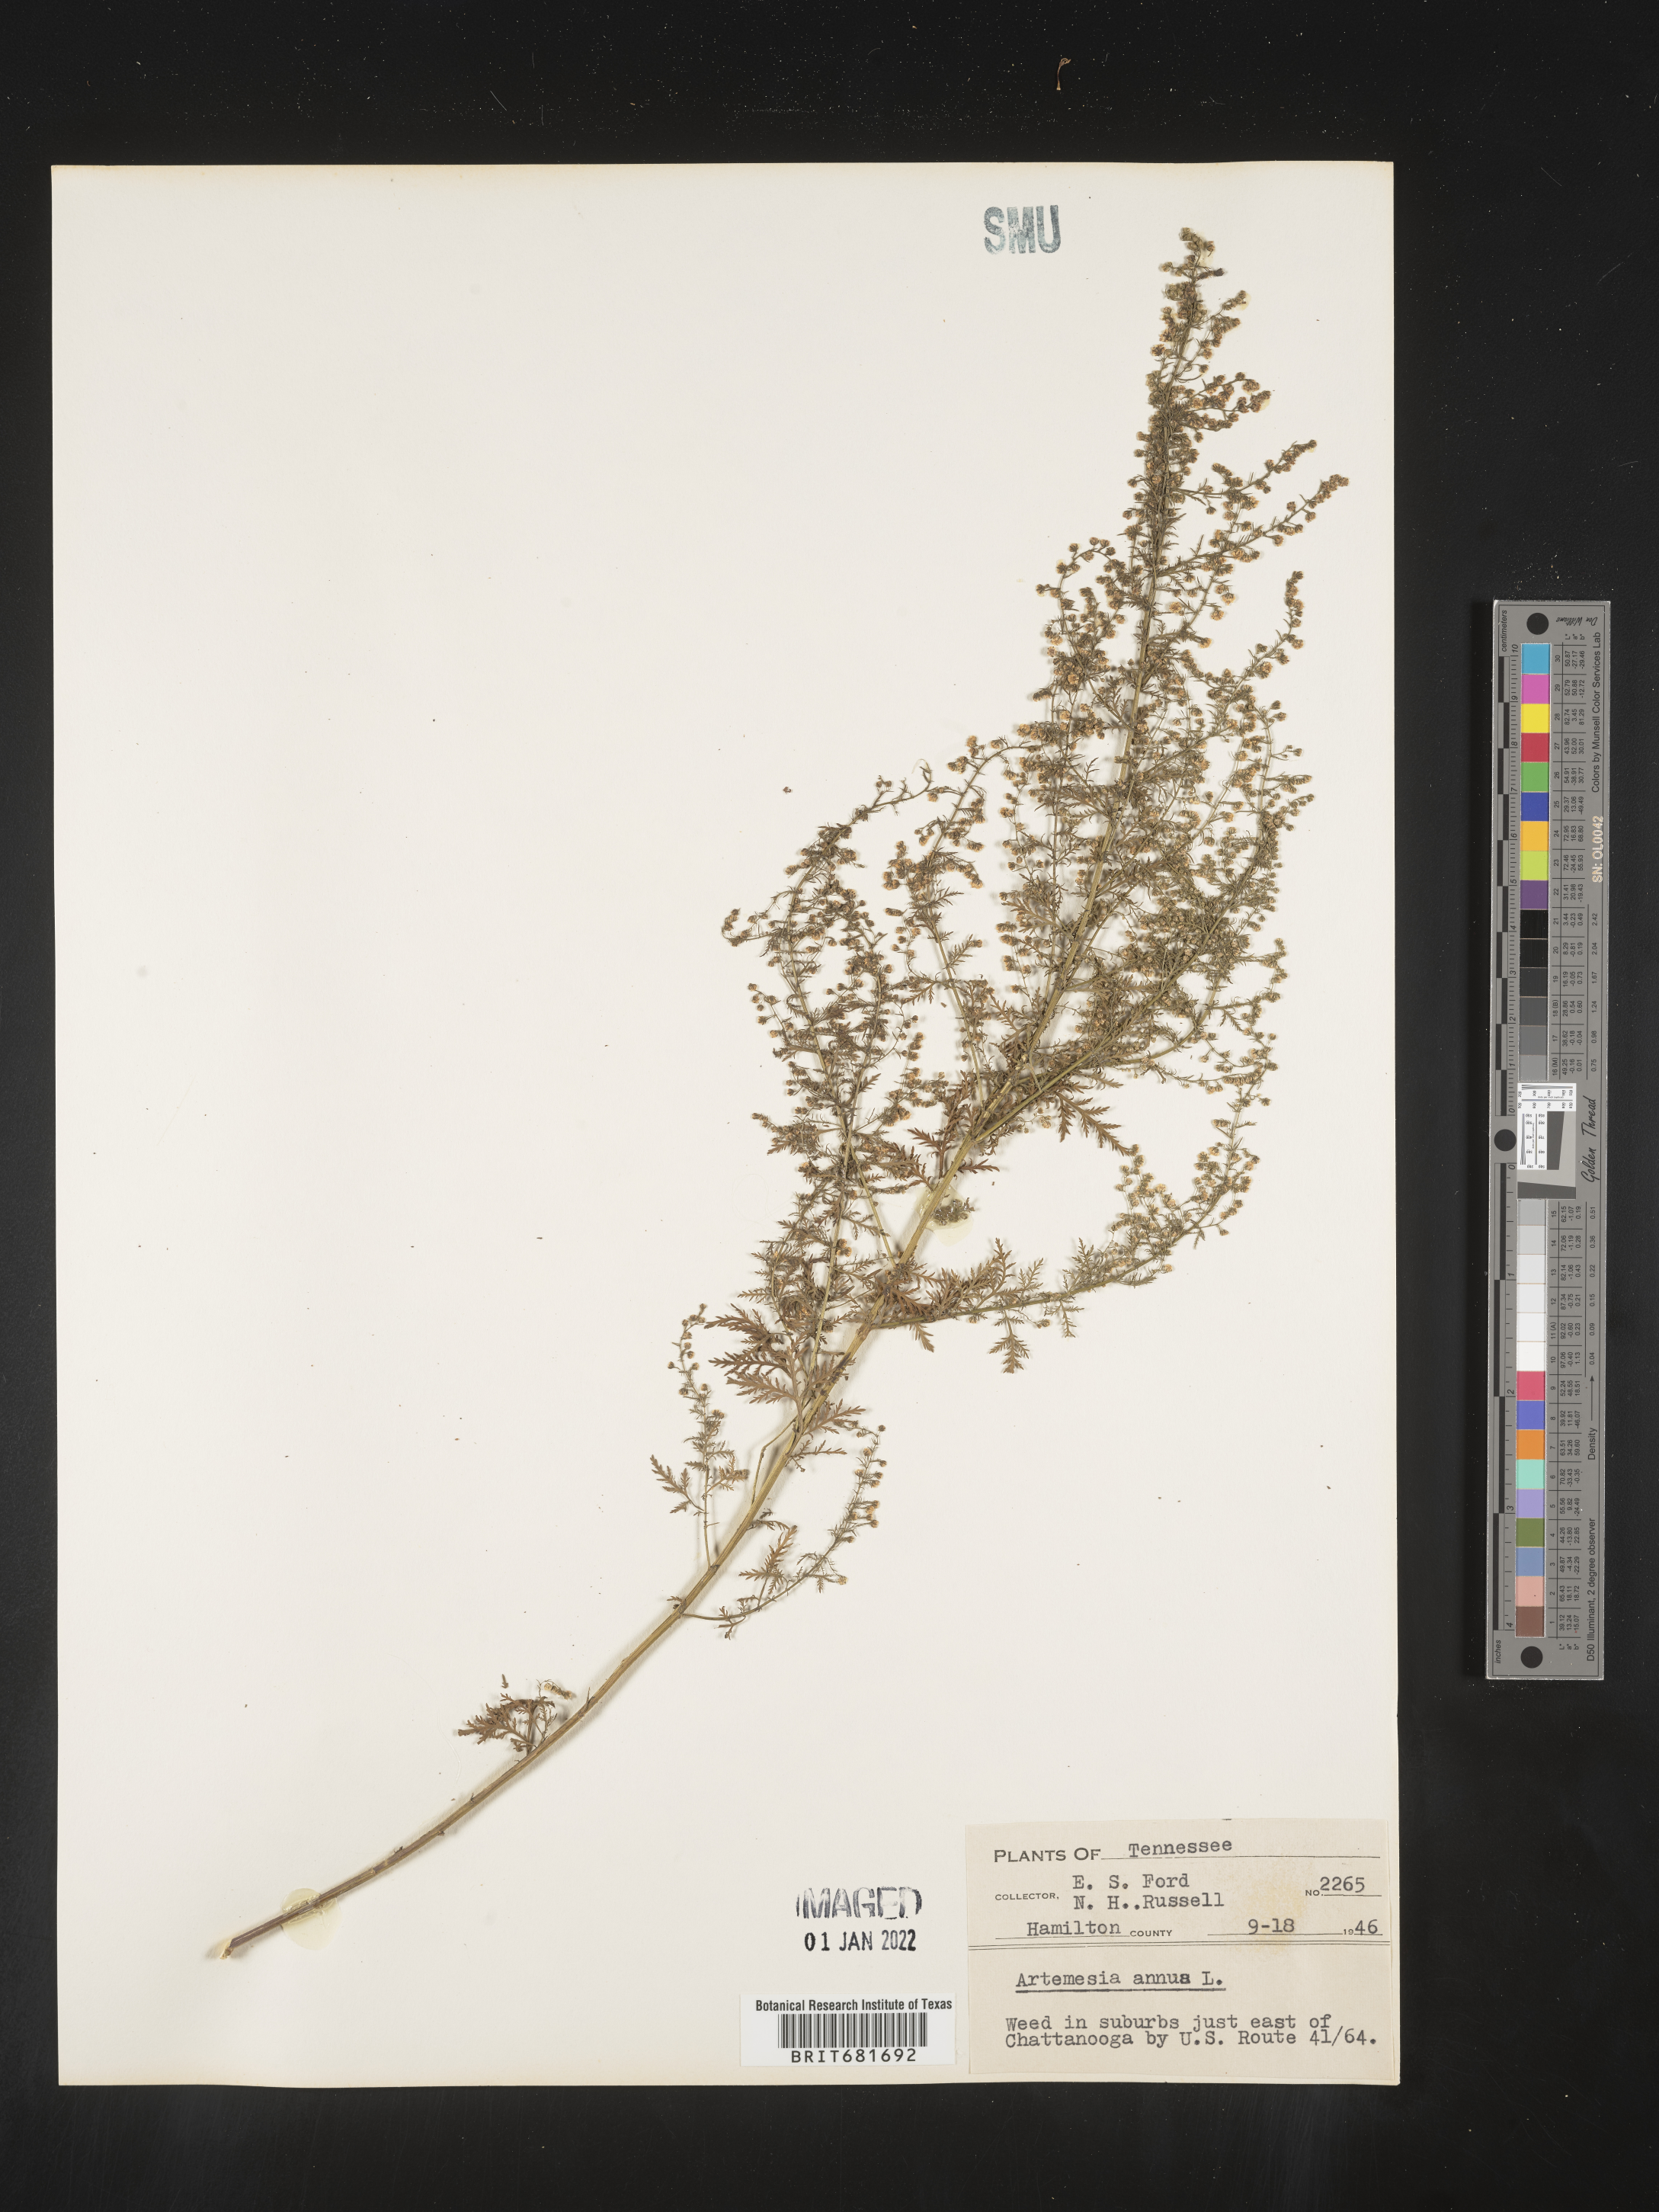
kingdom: Plantae
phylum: Tracheophyta
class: Magnoliopsida
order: Asterales
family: Asteraceae
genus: Artemisia
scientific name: Artemisia annua
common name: Sweet sagewort
